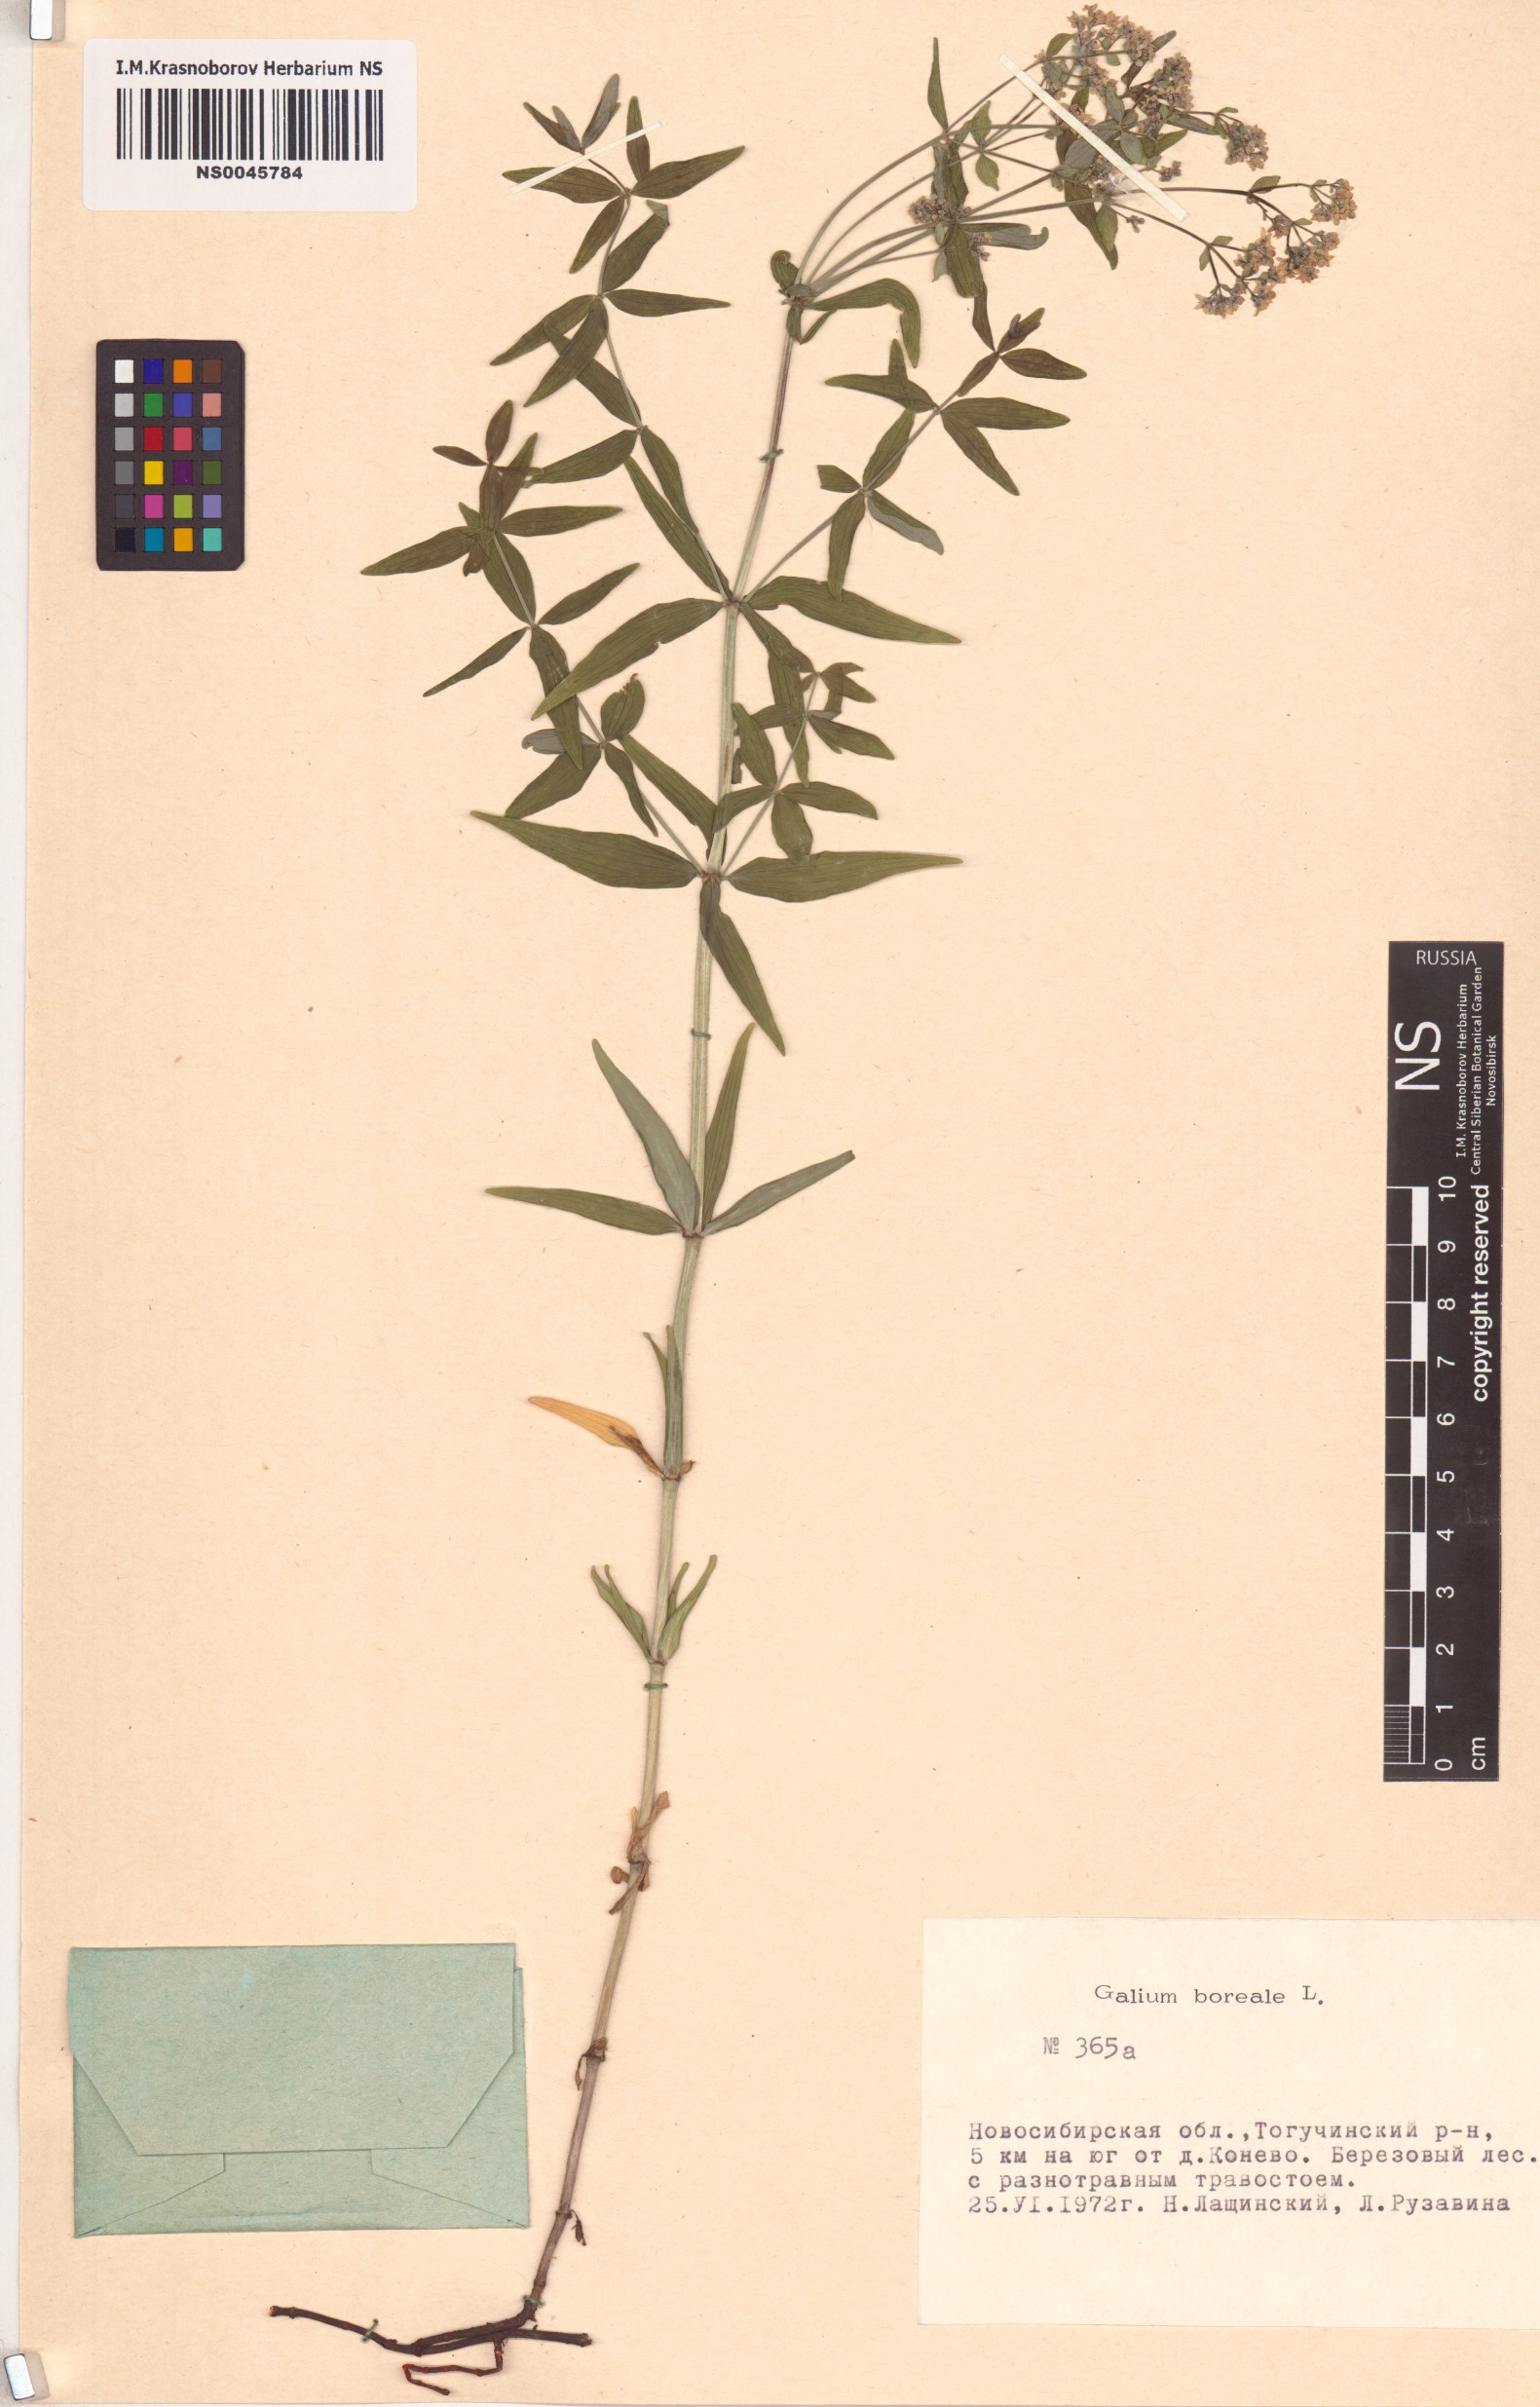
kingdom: Plantae
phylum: Tracheophyta
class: Magnoliopsida
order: Gentianales
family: Rubiaceae
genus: Galium
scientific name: Galium boreale
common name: Northern bedstraw
